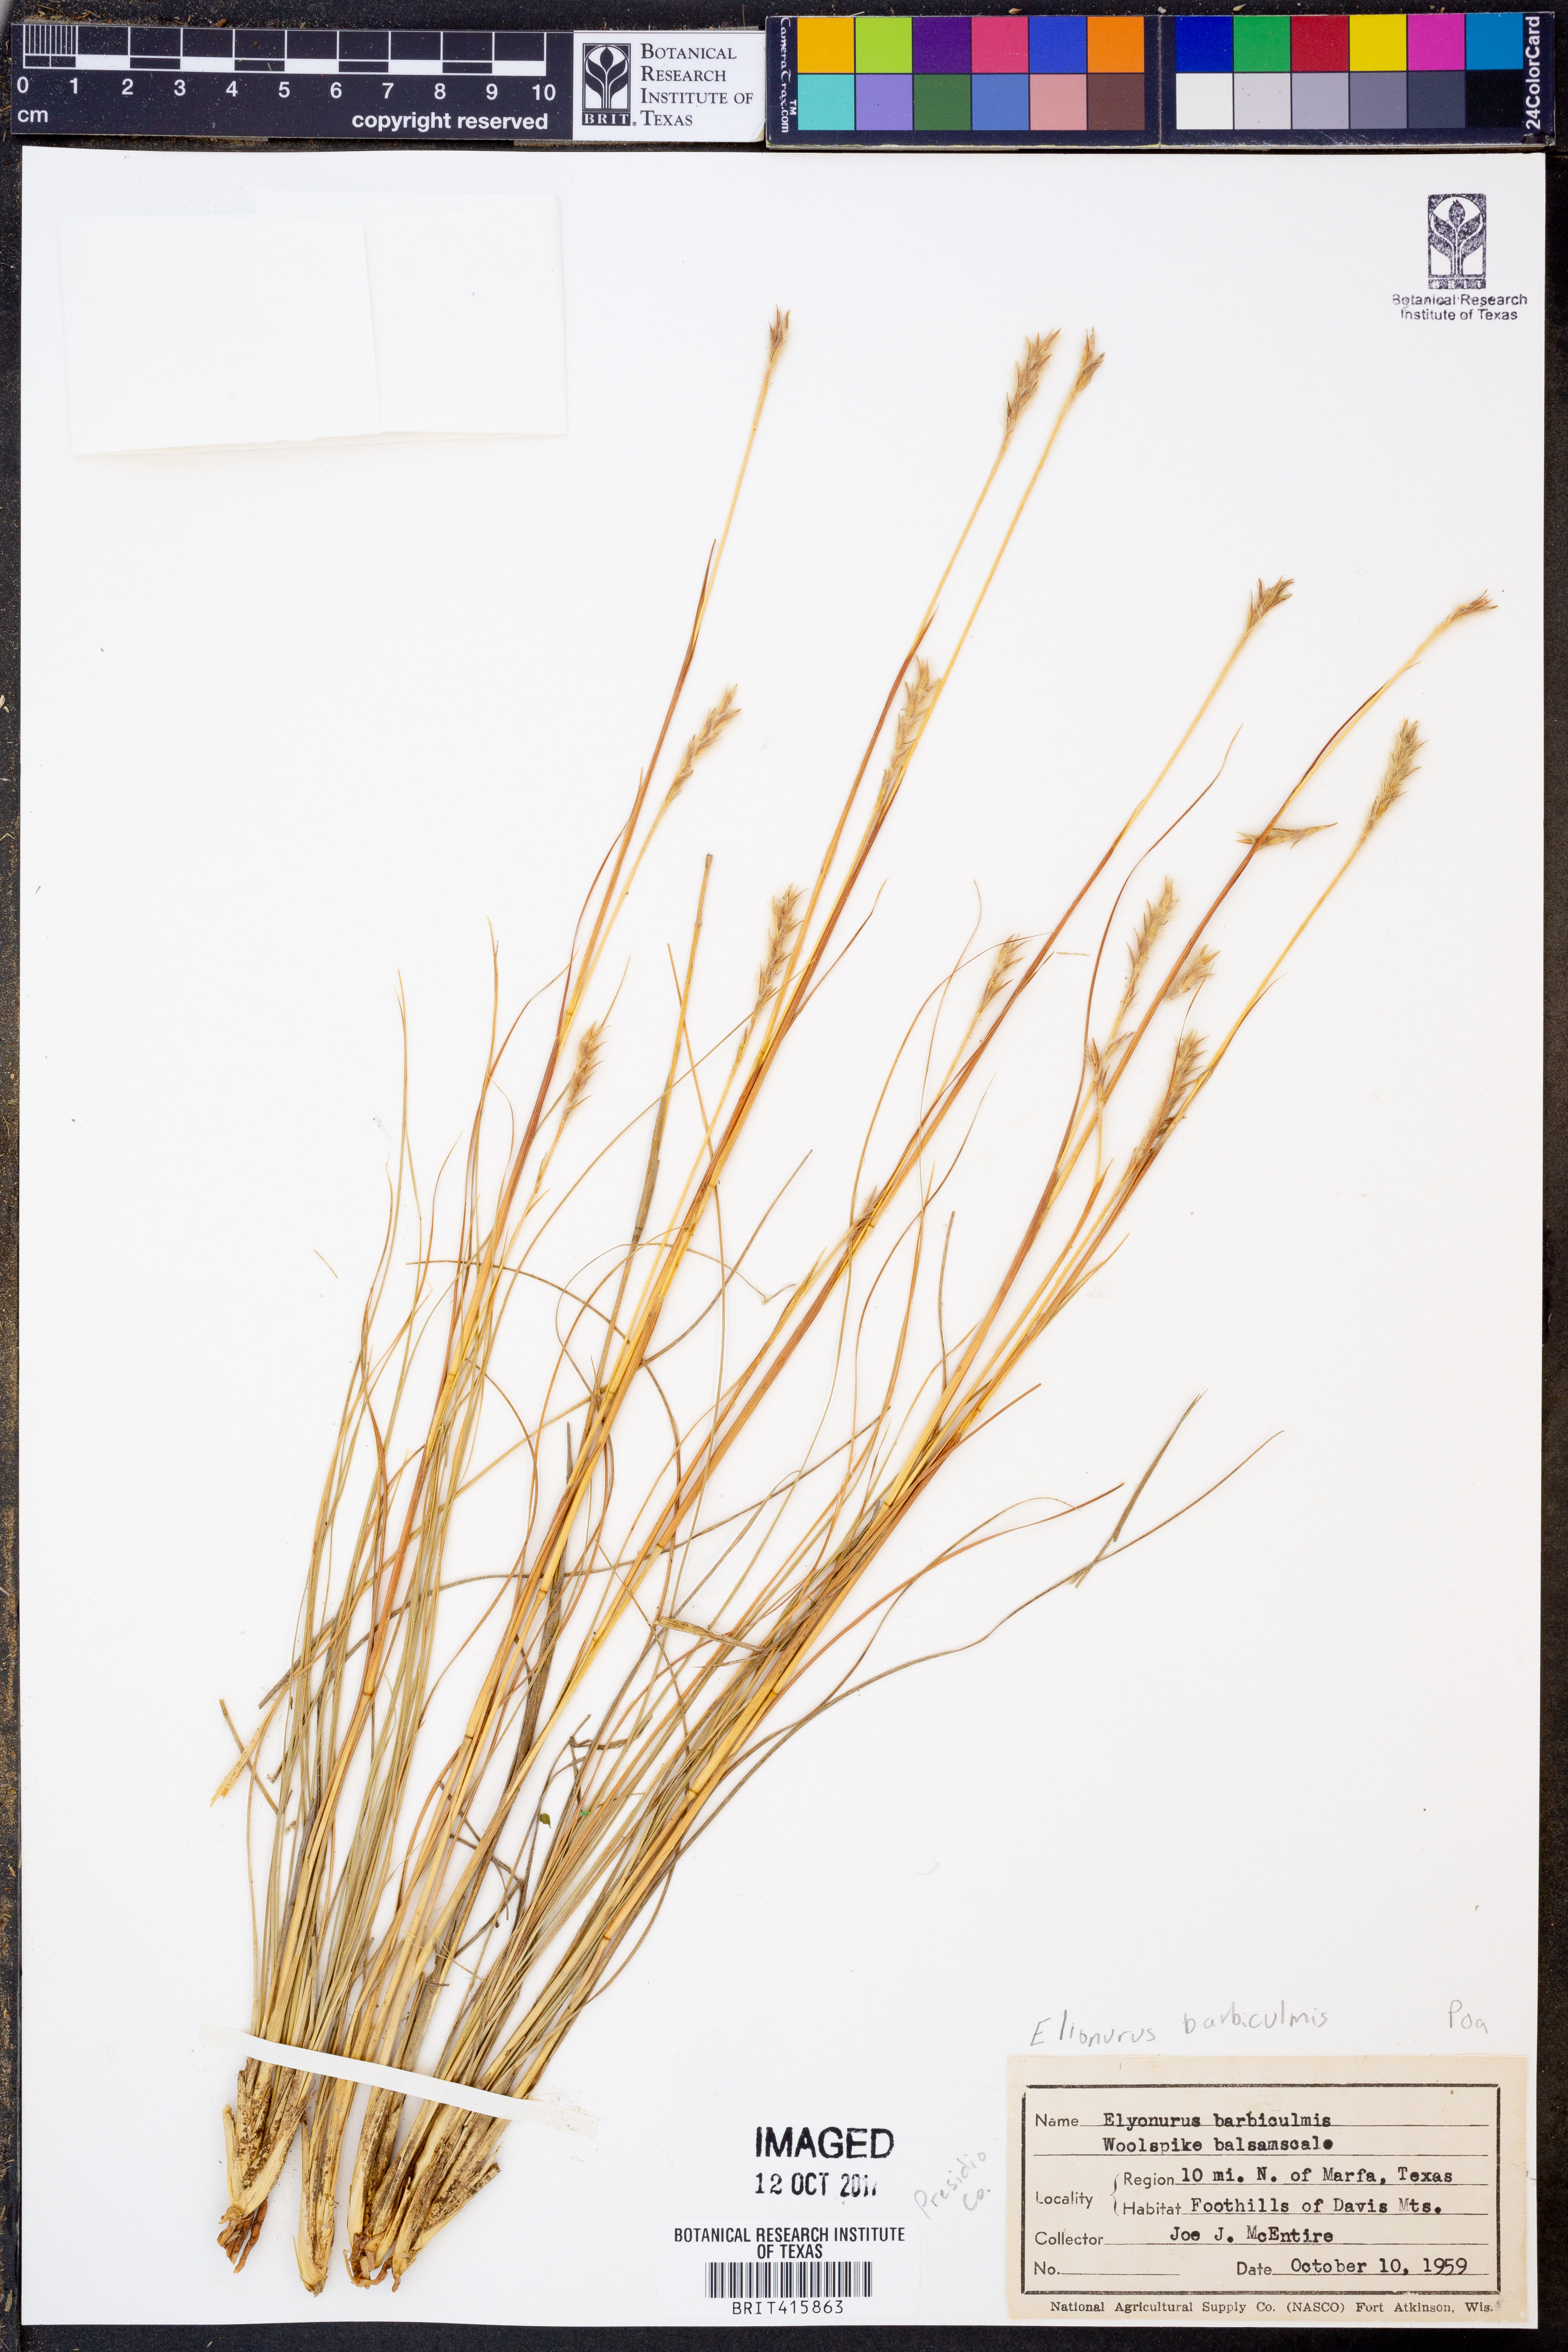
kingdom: Plantae
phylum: Tracheophyta
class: Liliopsida
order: Poales
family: Poaceae
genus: Elionurus
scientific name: Elionurus barbiculmis
